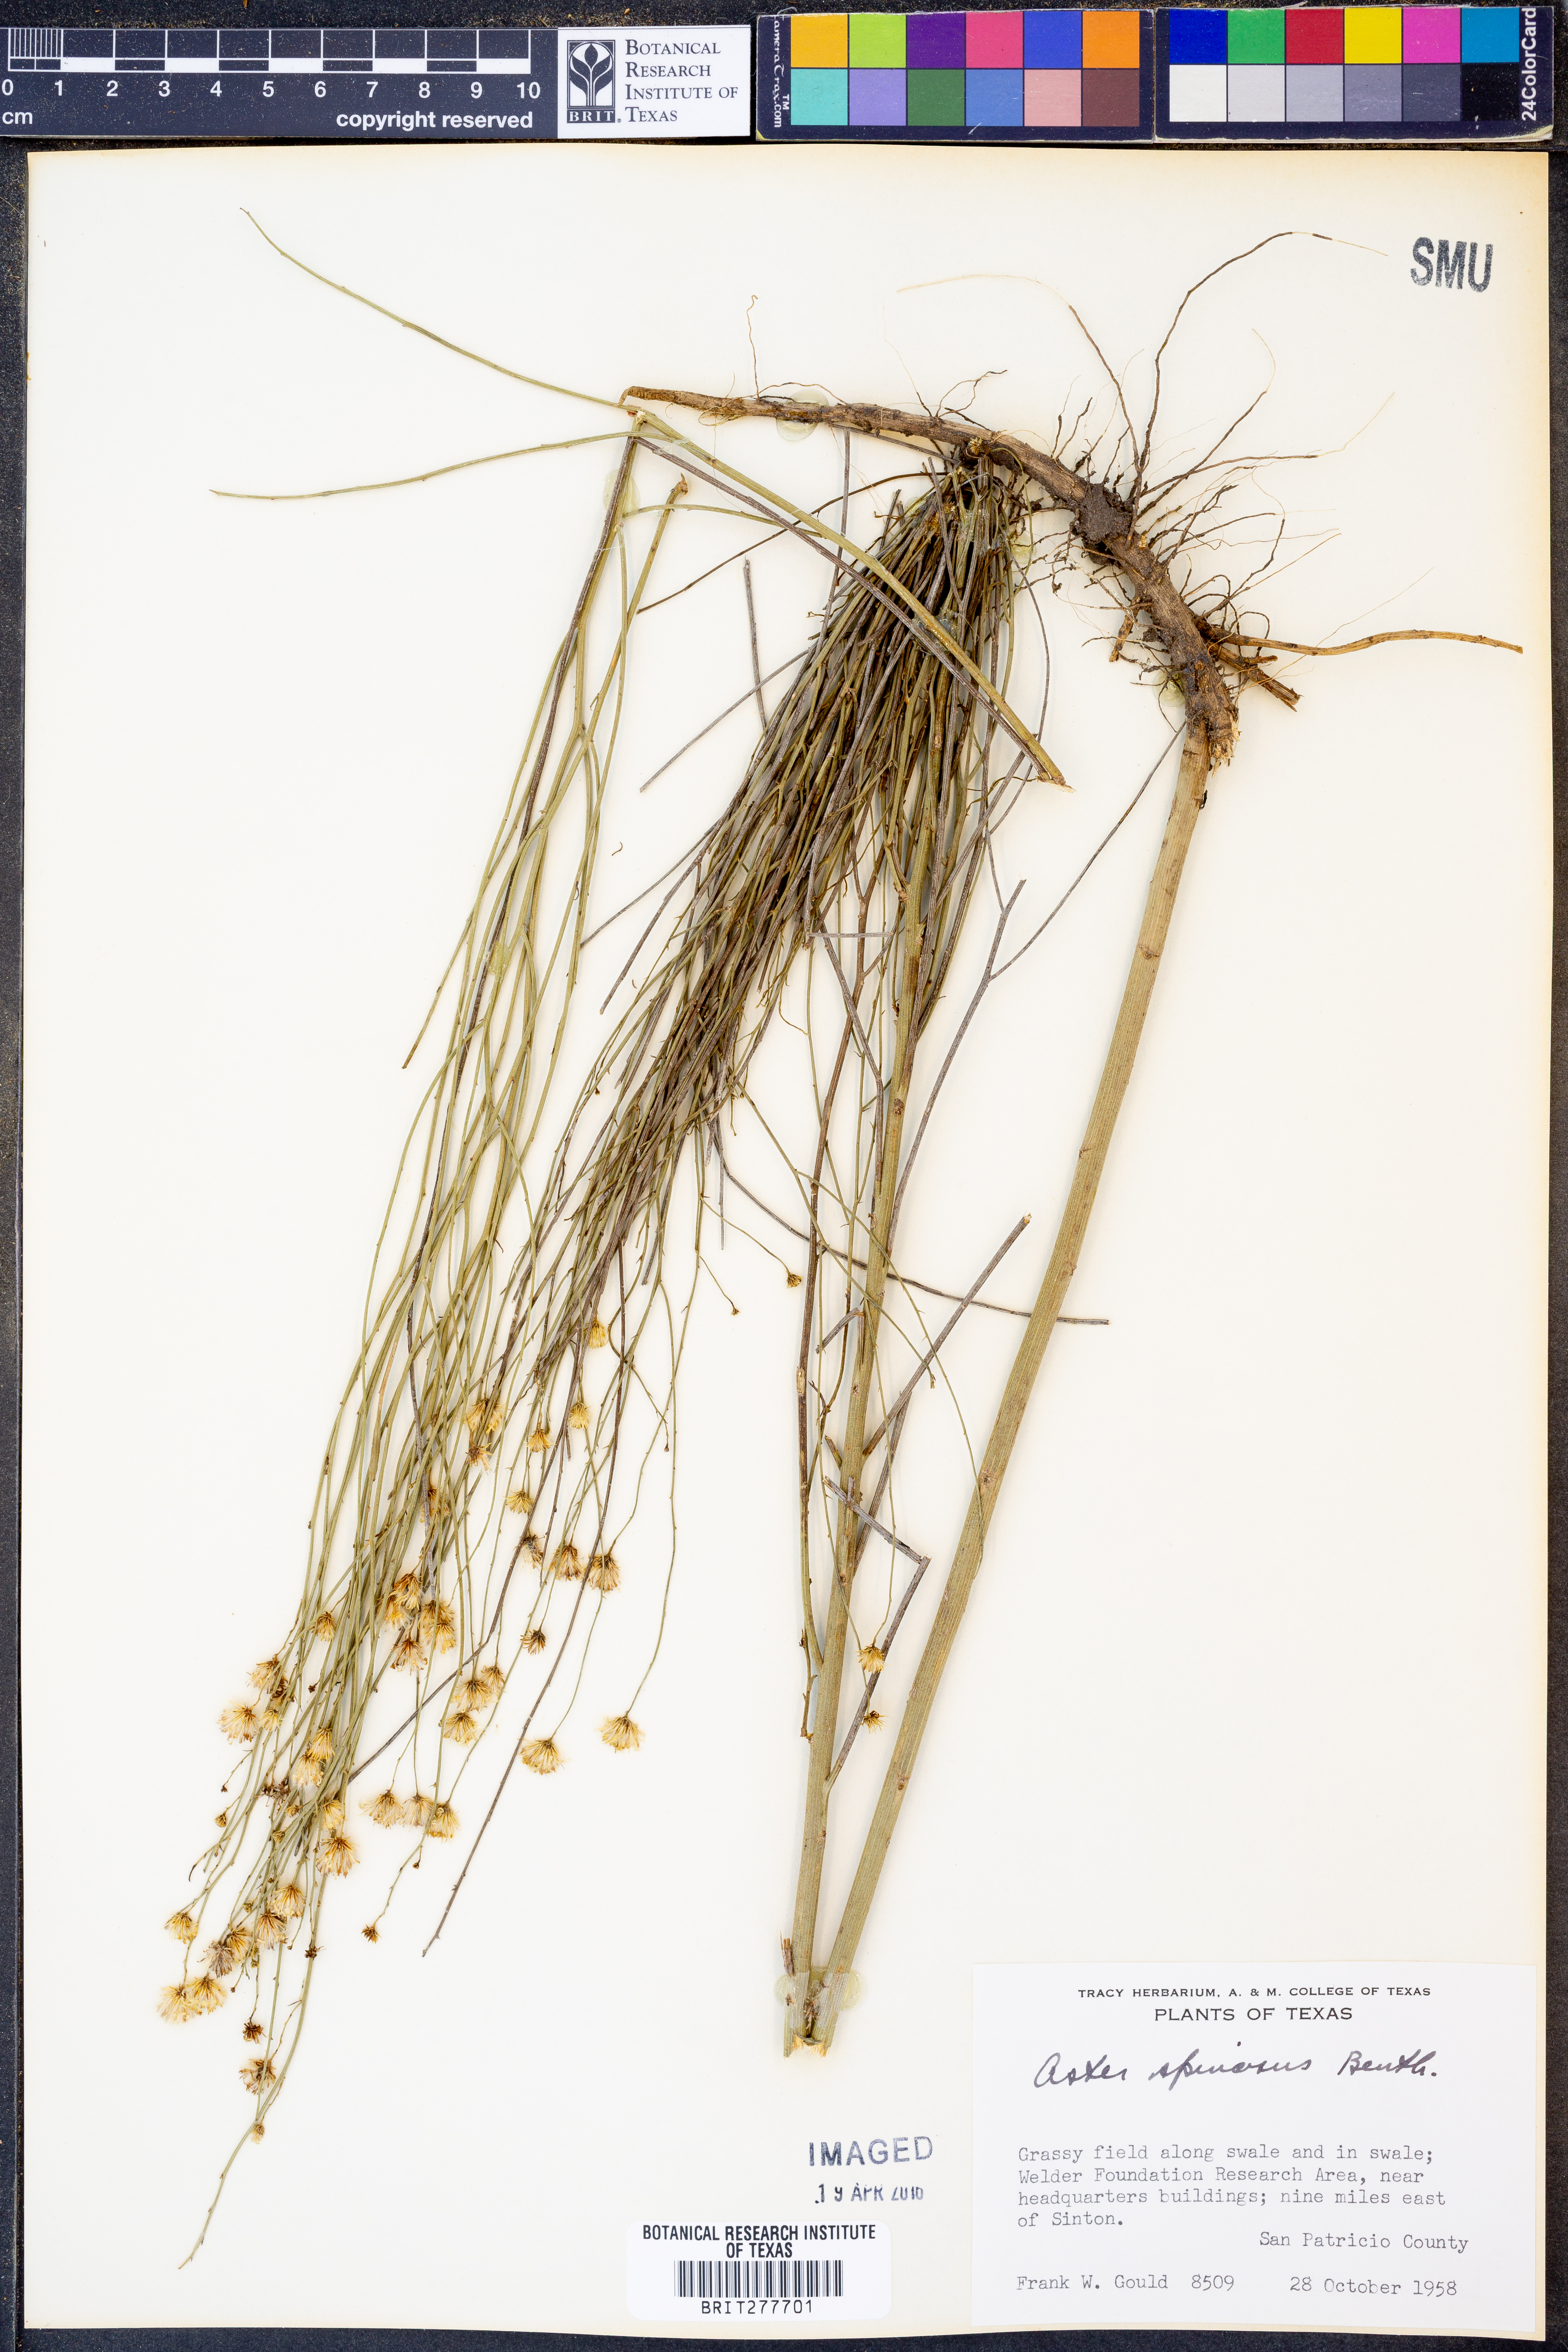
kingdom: Plantae
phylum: Tracheophyta
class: Magnoliopsida
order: Asterales
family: Asteraceae
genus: Chloracantha
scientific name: Chloracantha spinosa
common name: Mexican devilweed
